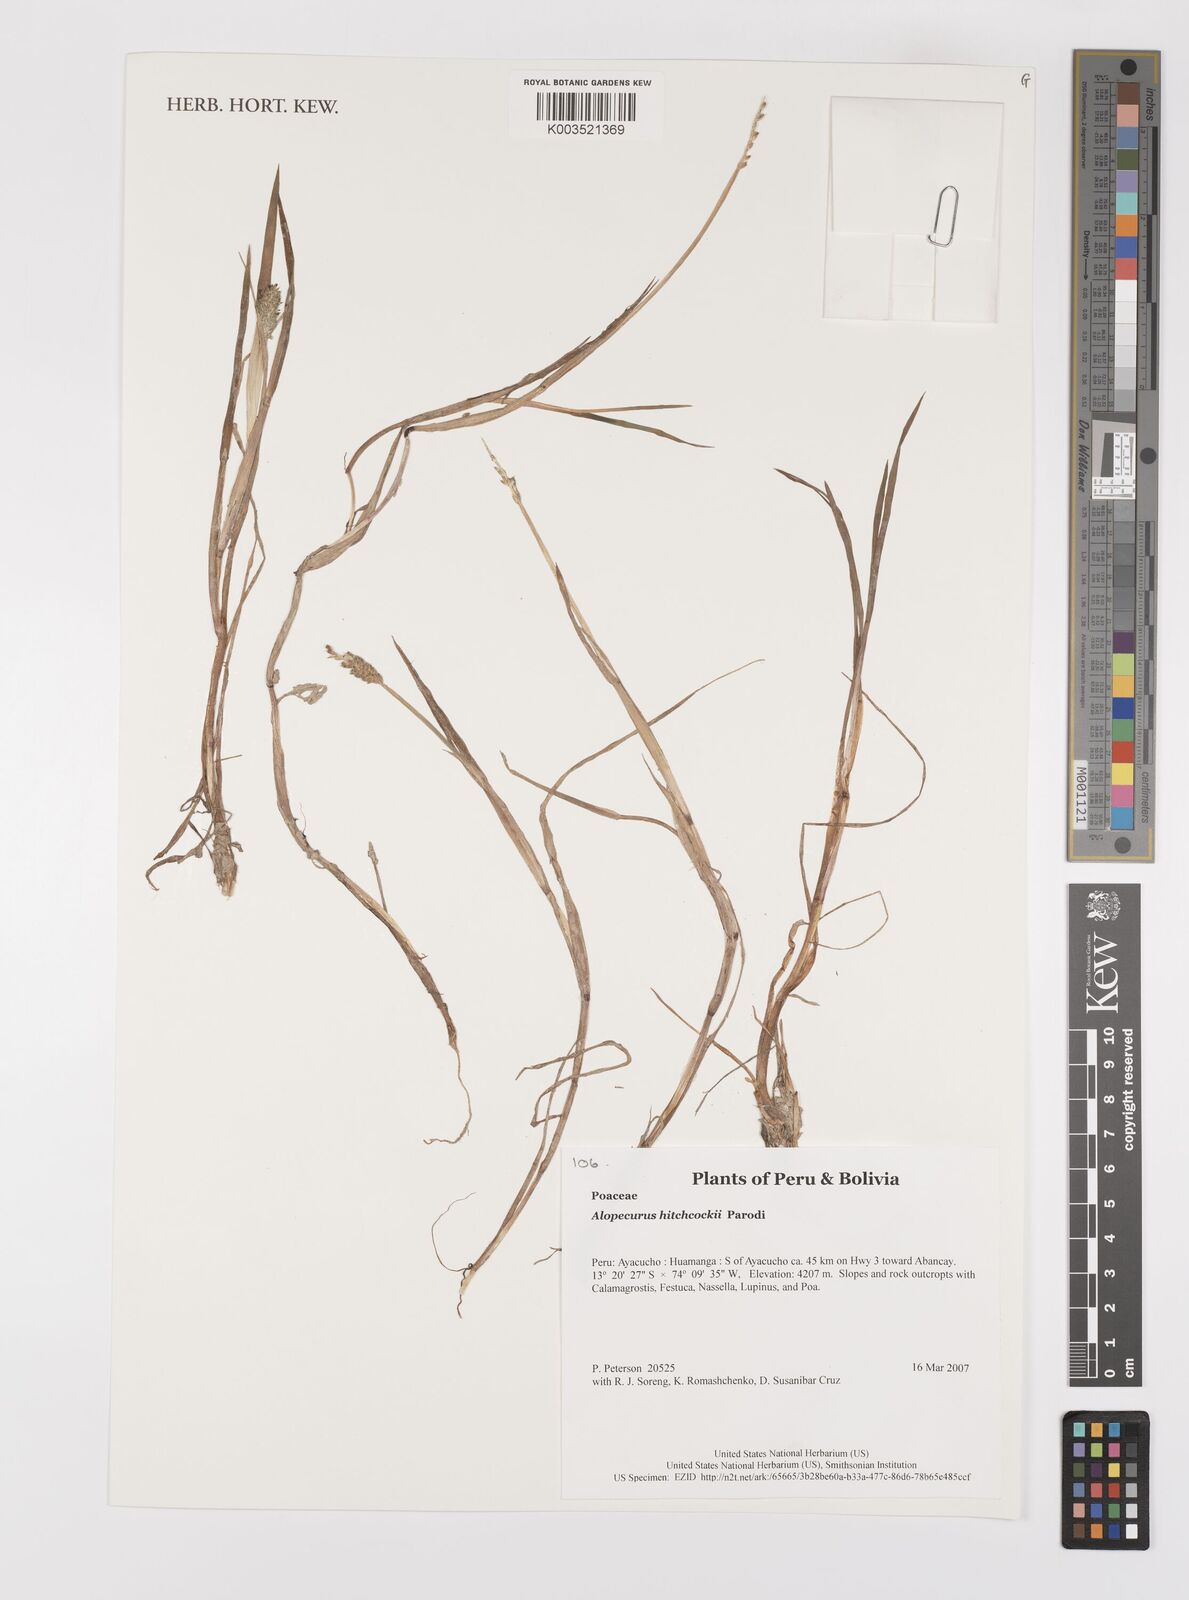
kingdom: Plantae
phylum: Tracheophyta
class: Liliopsida
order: Poales
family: Poaceae
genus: Alopecurus
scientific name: Alopecurus hitchcockii
